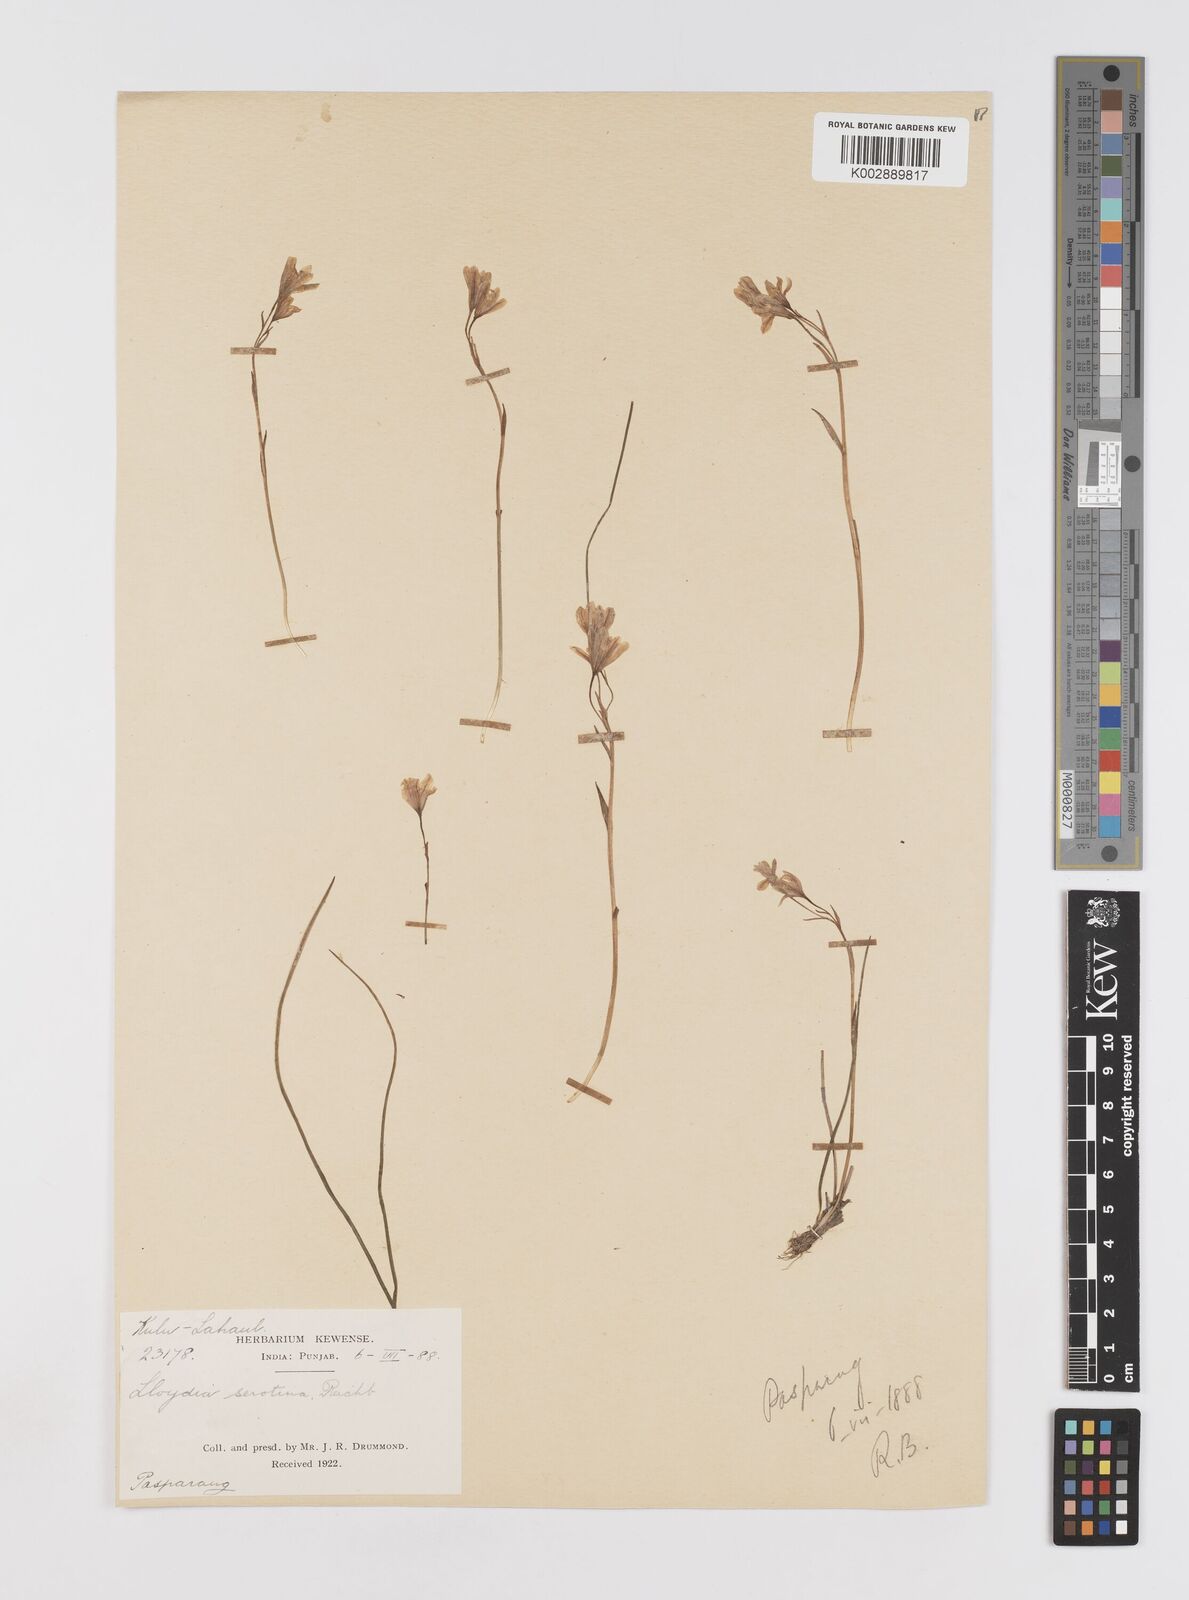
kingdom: Plantae
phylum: Tracheophyta
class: Liliopsida
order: Liliales
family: Liliaceae
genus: Gagea
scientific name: Gagea serotina
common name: Snowdon lily
